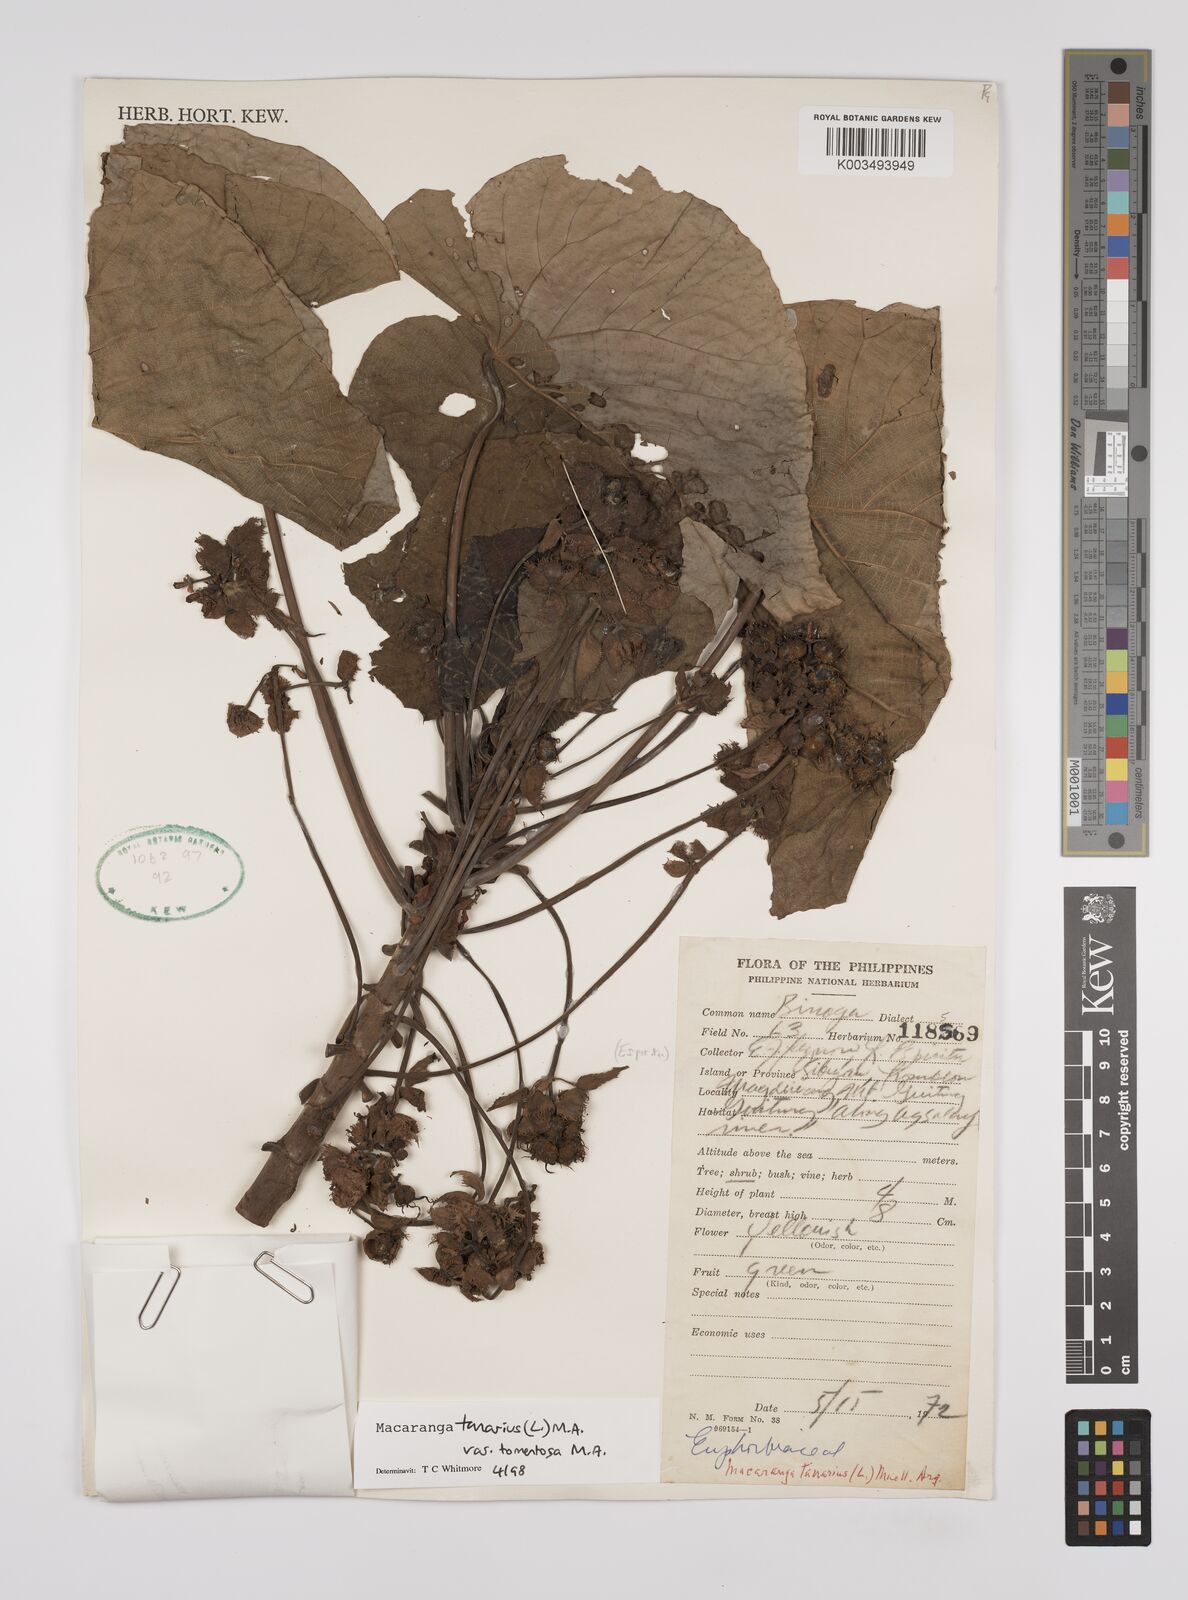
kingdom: Plantae
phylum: Tracheophyta
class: Magnoliopsida
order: Malpighiales
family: Euphorbiaceae
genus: Macaranga
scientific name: Macaranga tanarius
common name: Parasol leaf tree
